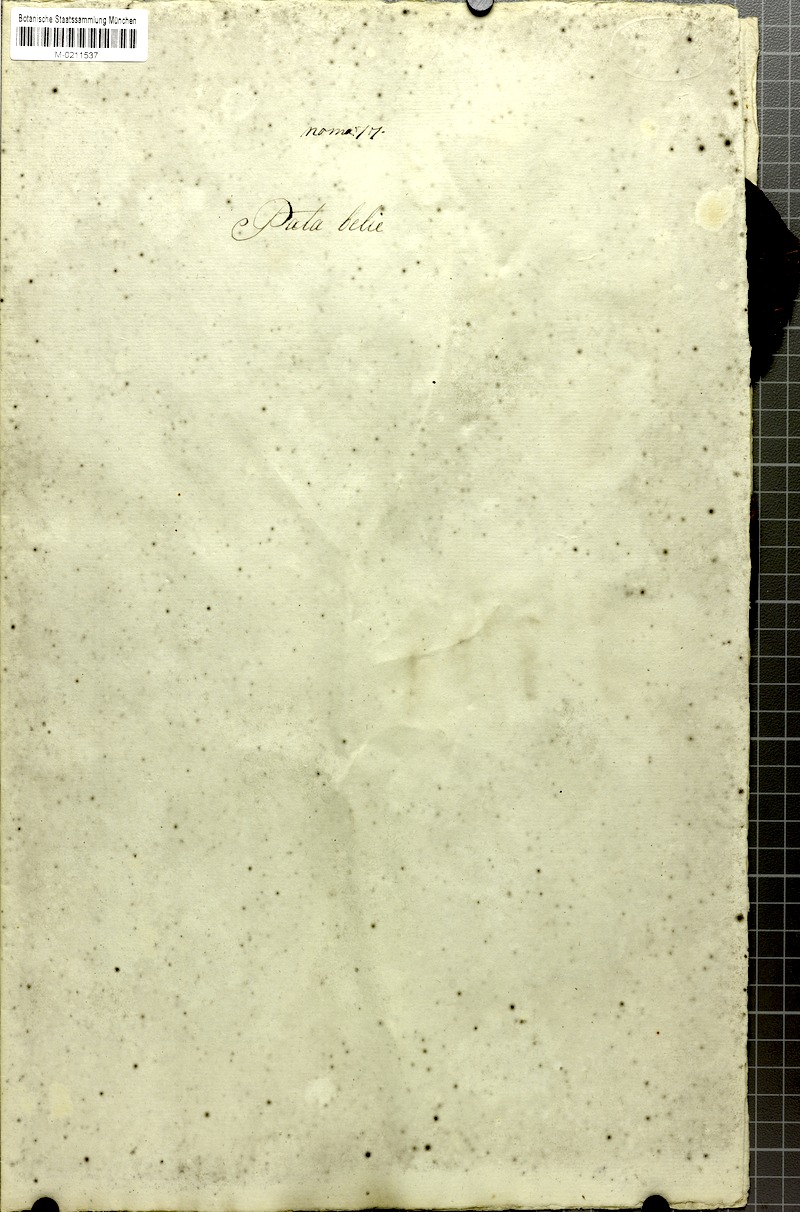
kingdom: Plantae
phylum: Tracheophyta
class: Magnoliopsida
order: Malvales
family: Malvaceae
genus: Talipariti
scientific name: Talipariti tiliaceum
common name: Sea hibiscus
